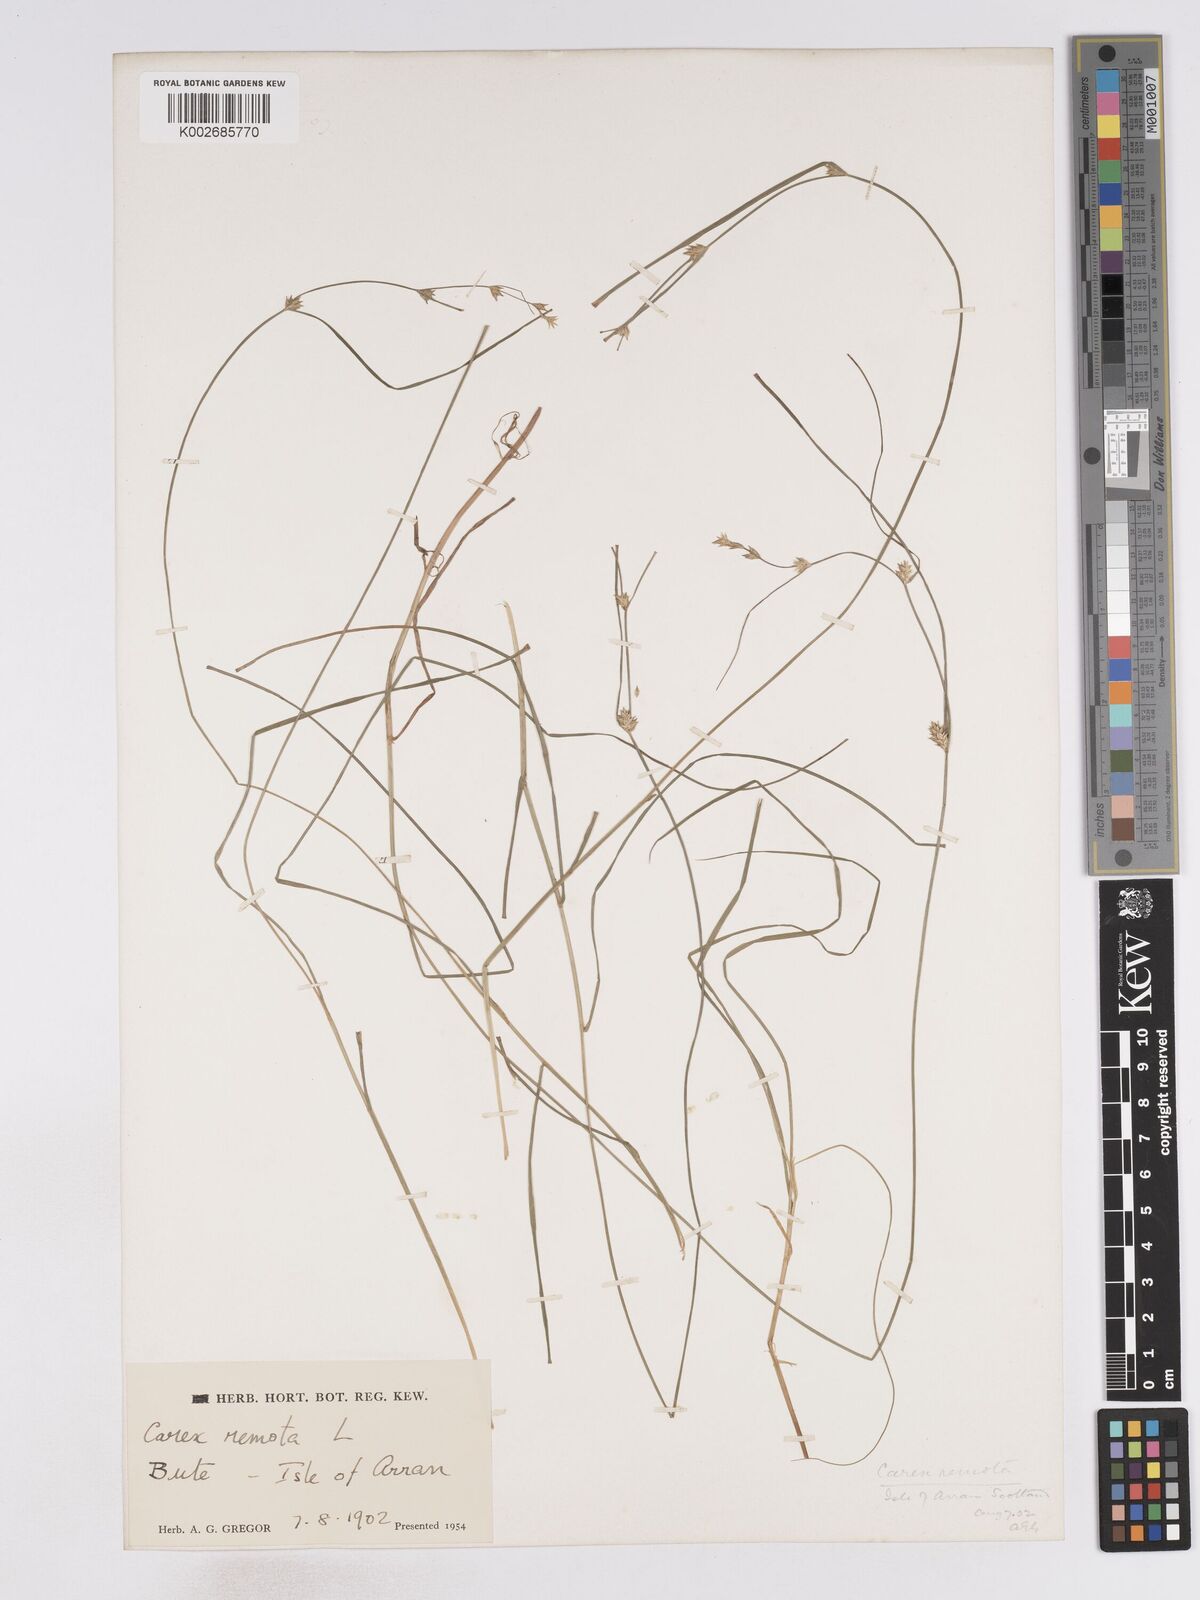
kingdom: Plantae
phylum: Tracheophyta
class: Liliopsida
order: Poales
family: Cyperaceae
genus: Carex
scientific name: Carex remota
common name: Remote sedge
